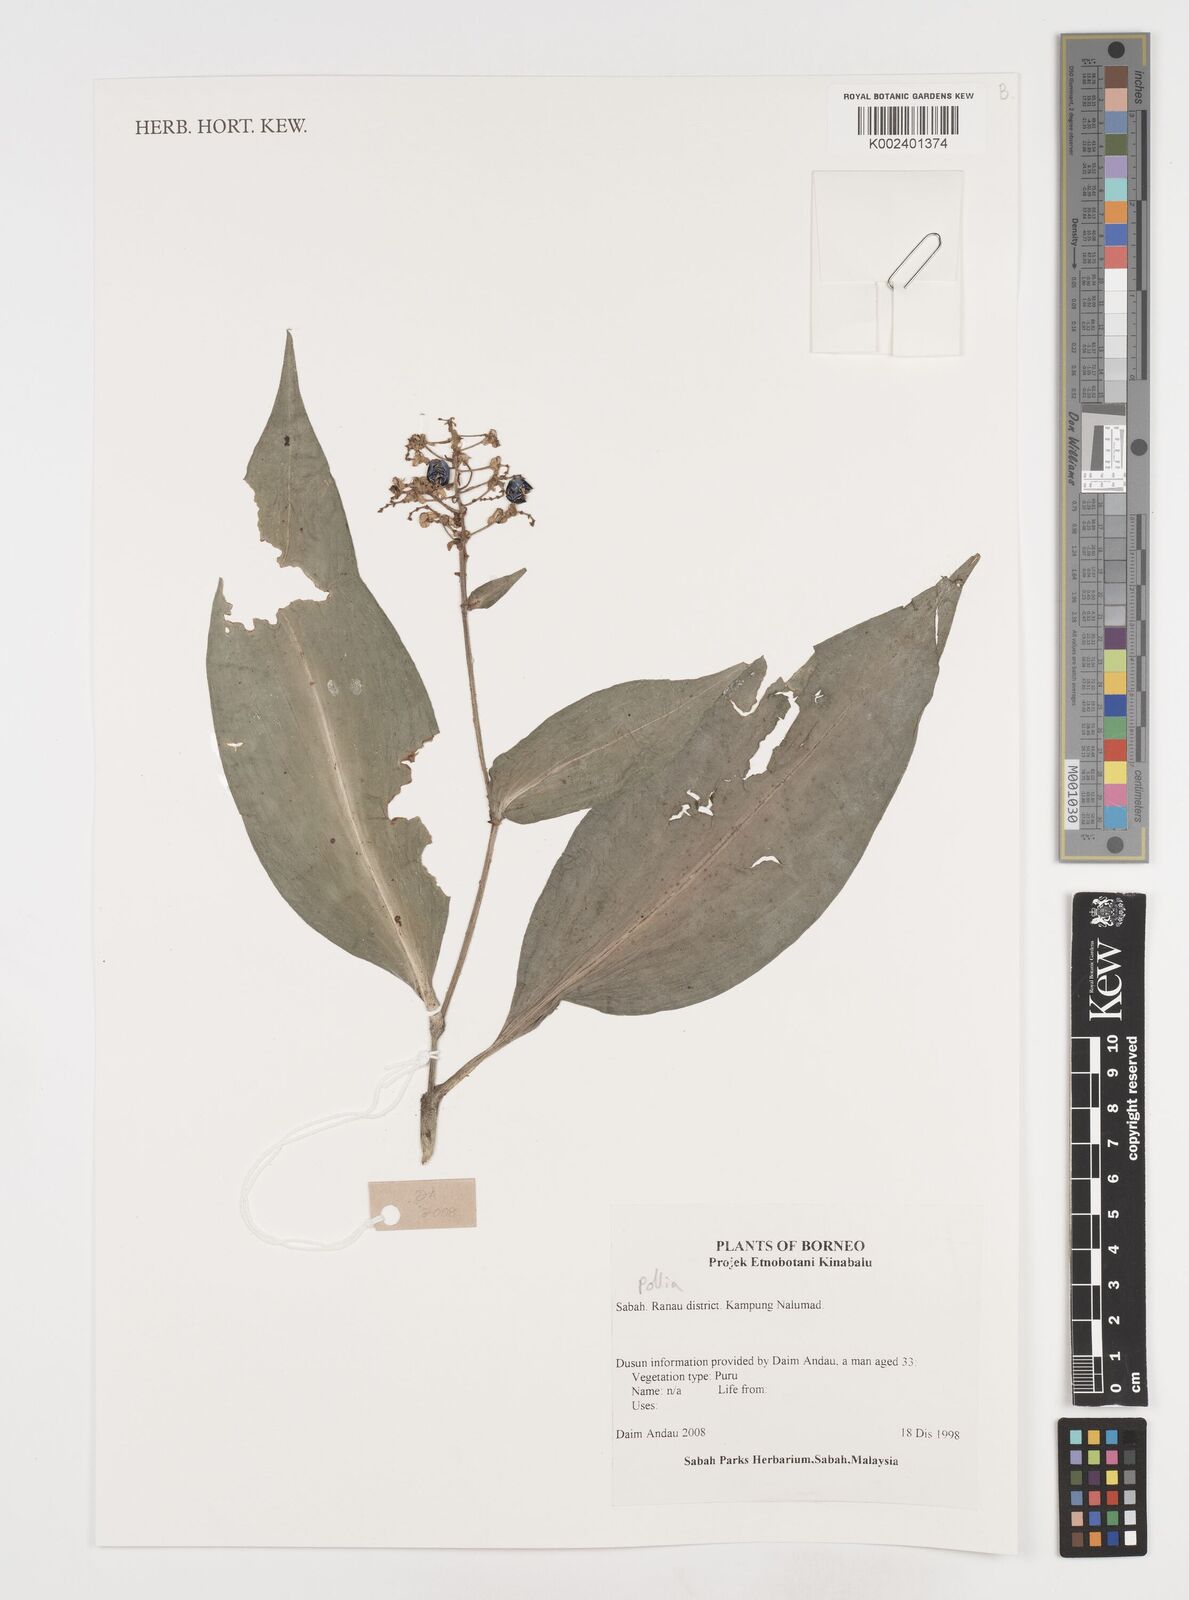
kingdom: Plantae
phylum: Tracheophyta
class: Liliopsida
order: Commelinales
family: Commelinaceae
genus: Pollia
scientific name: Pollia
